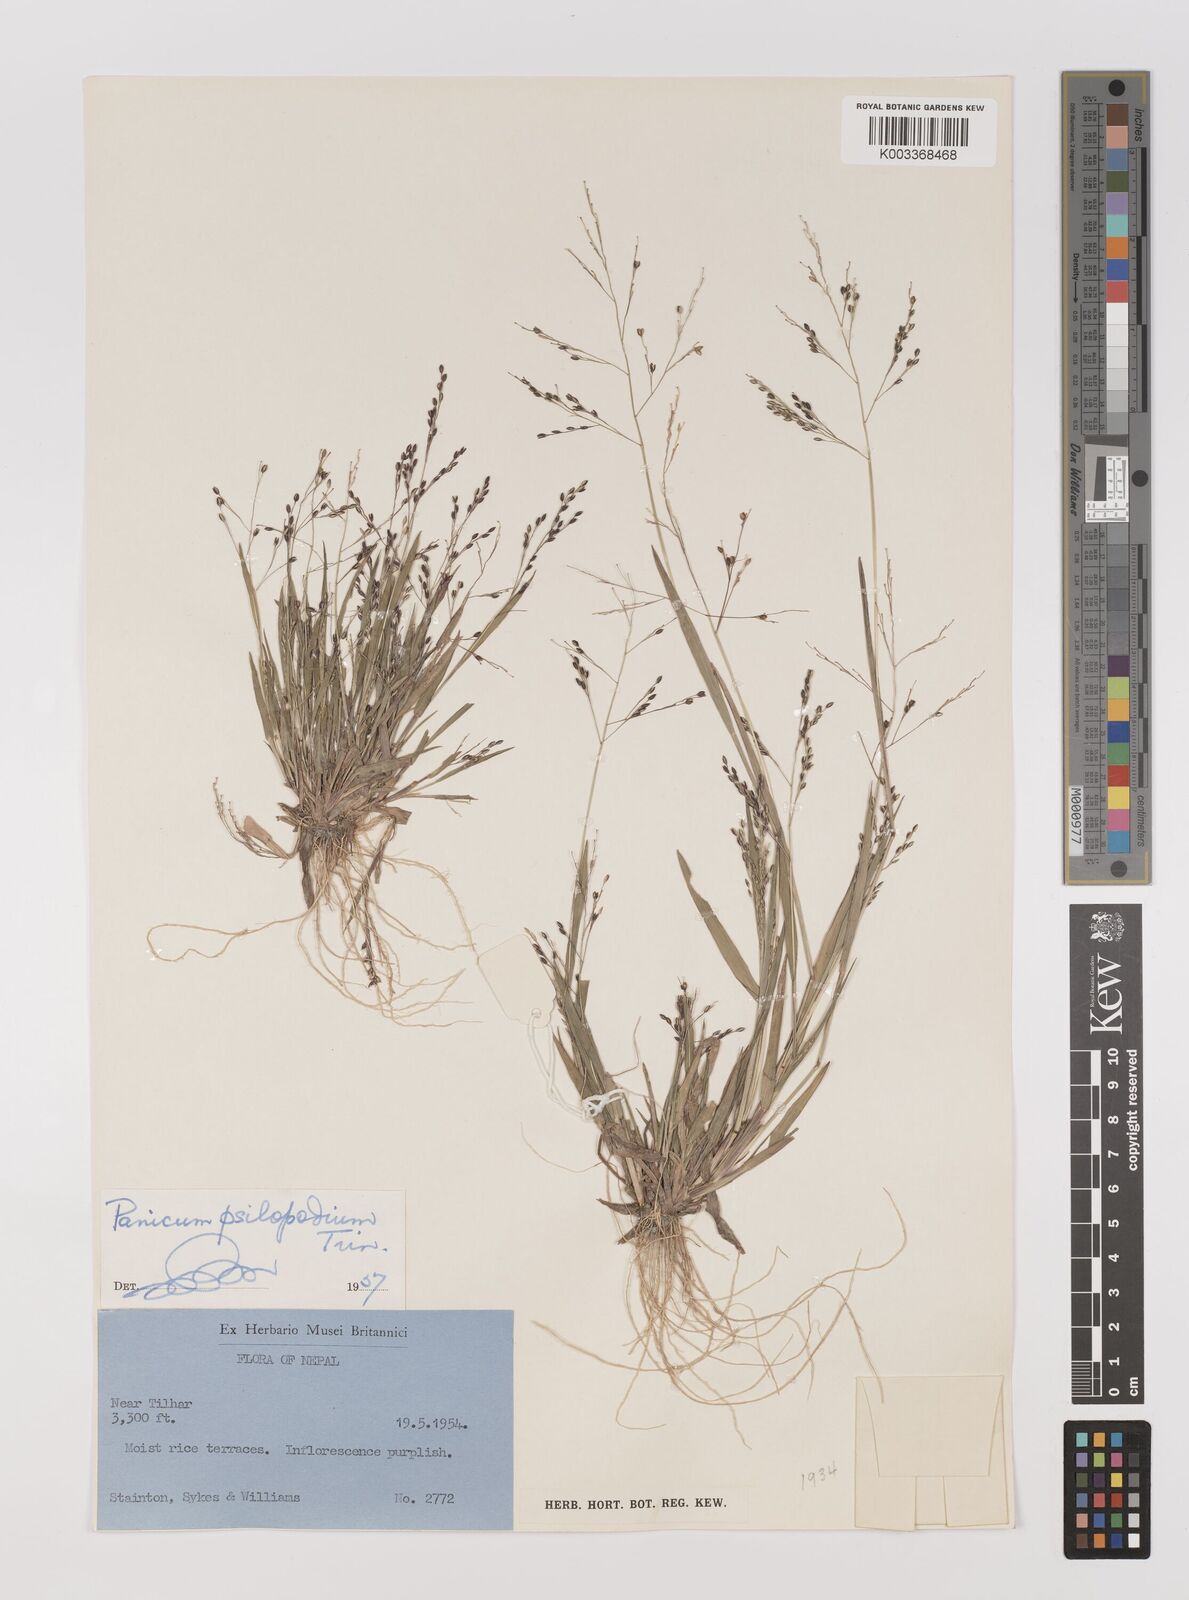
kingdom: Plantae
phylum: Tracheophyta
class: Liliopsida
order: Poales
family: Poaceae
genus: Panicum
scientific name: Panicum sumatrense
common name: Little millet
